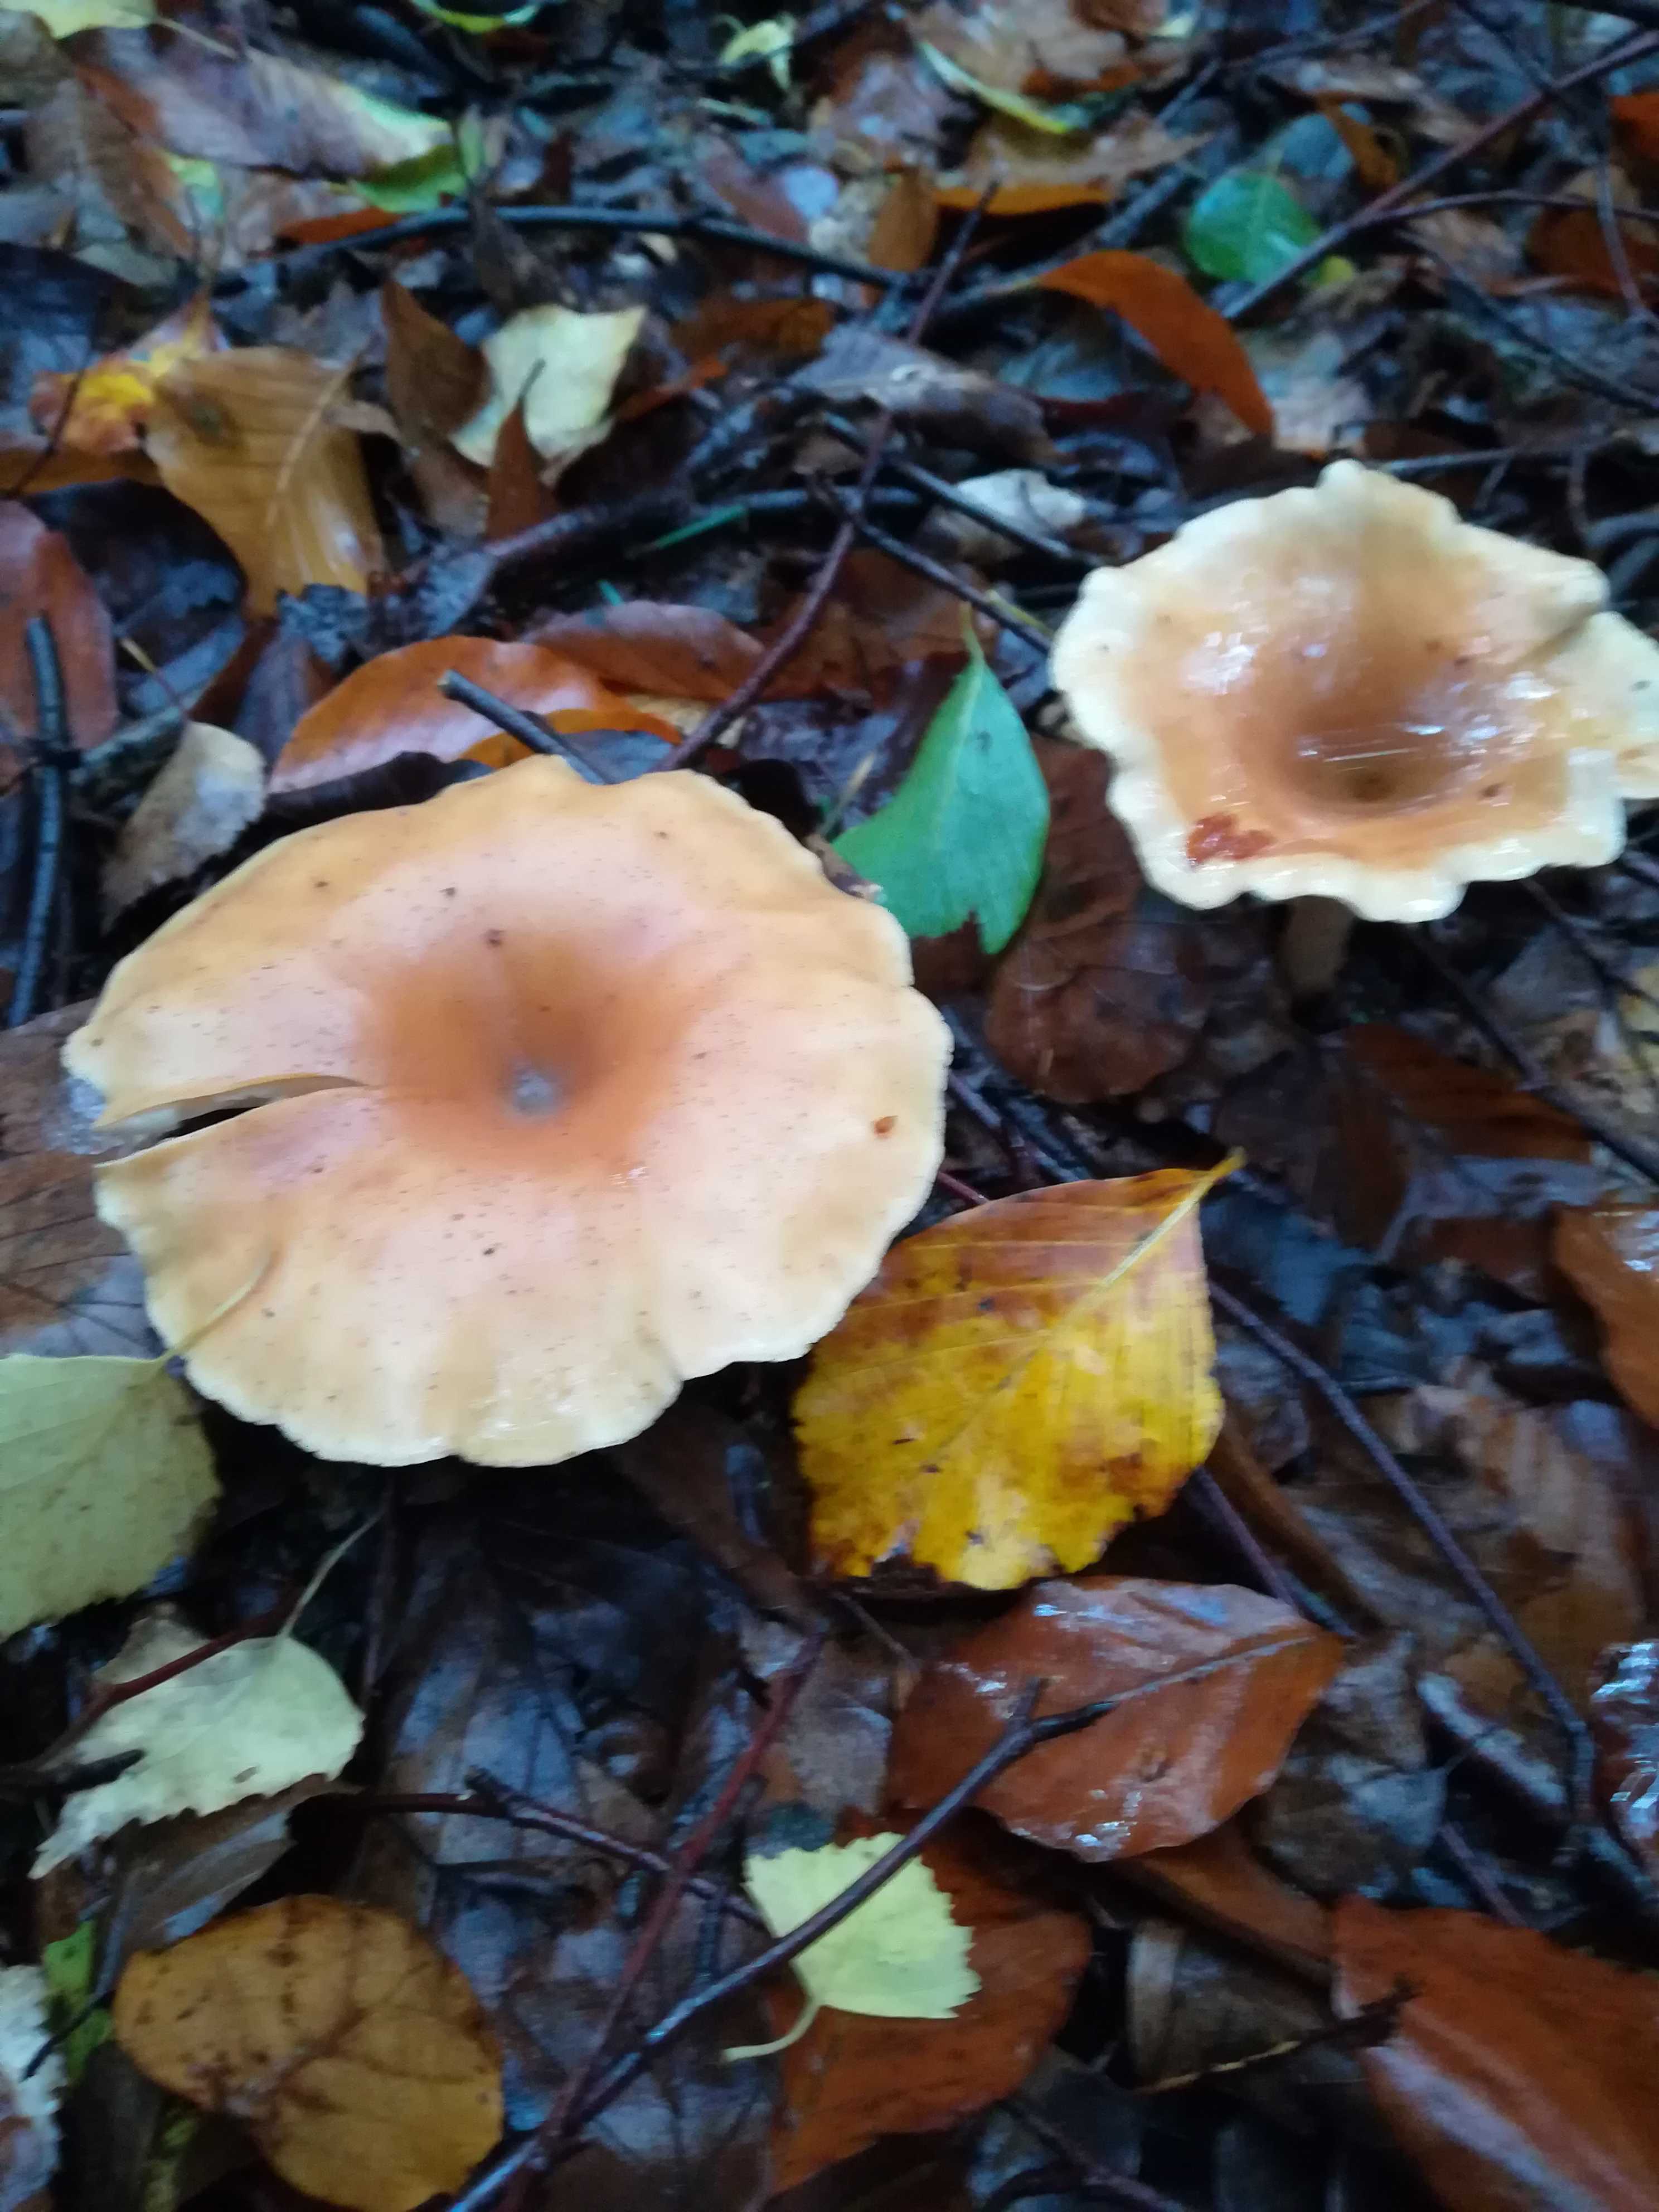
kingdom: Fungi
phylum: Basidiomycota
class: Agaricomycetes
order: Agaricales
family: Tricholomataceae
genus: Paralepista
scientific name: Paralepista flaccida
